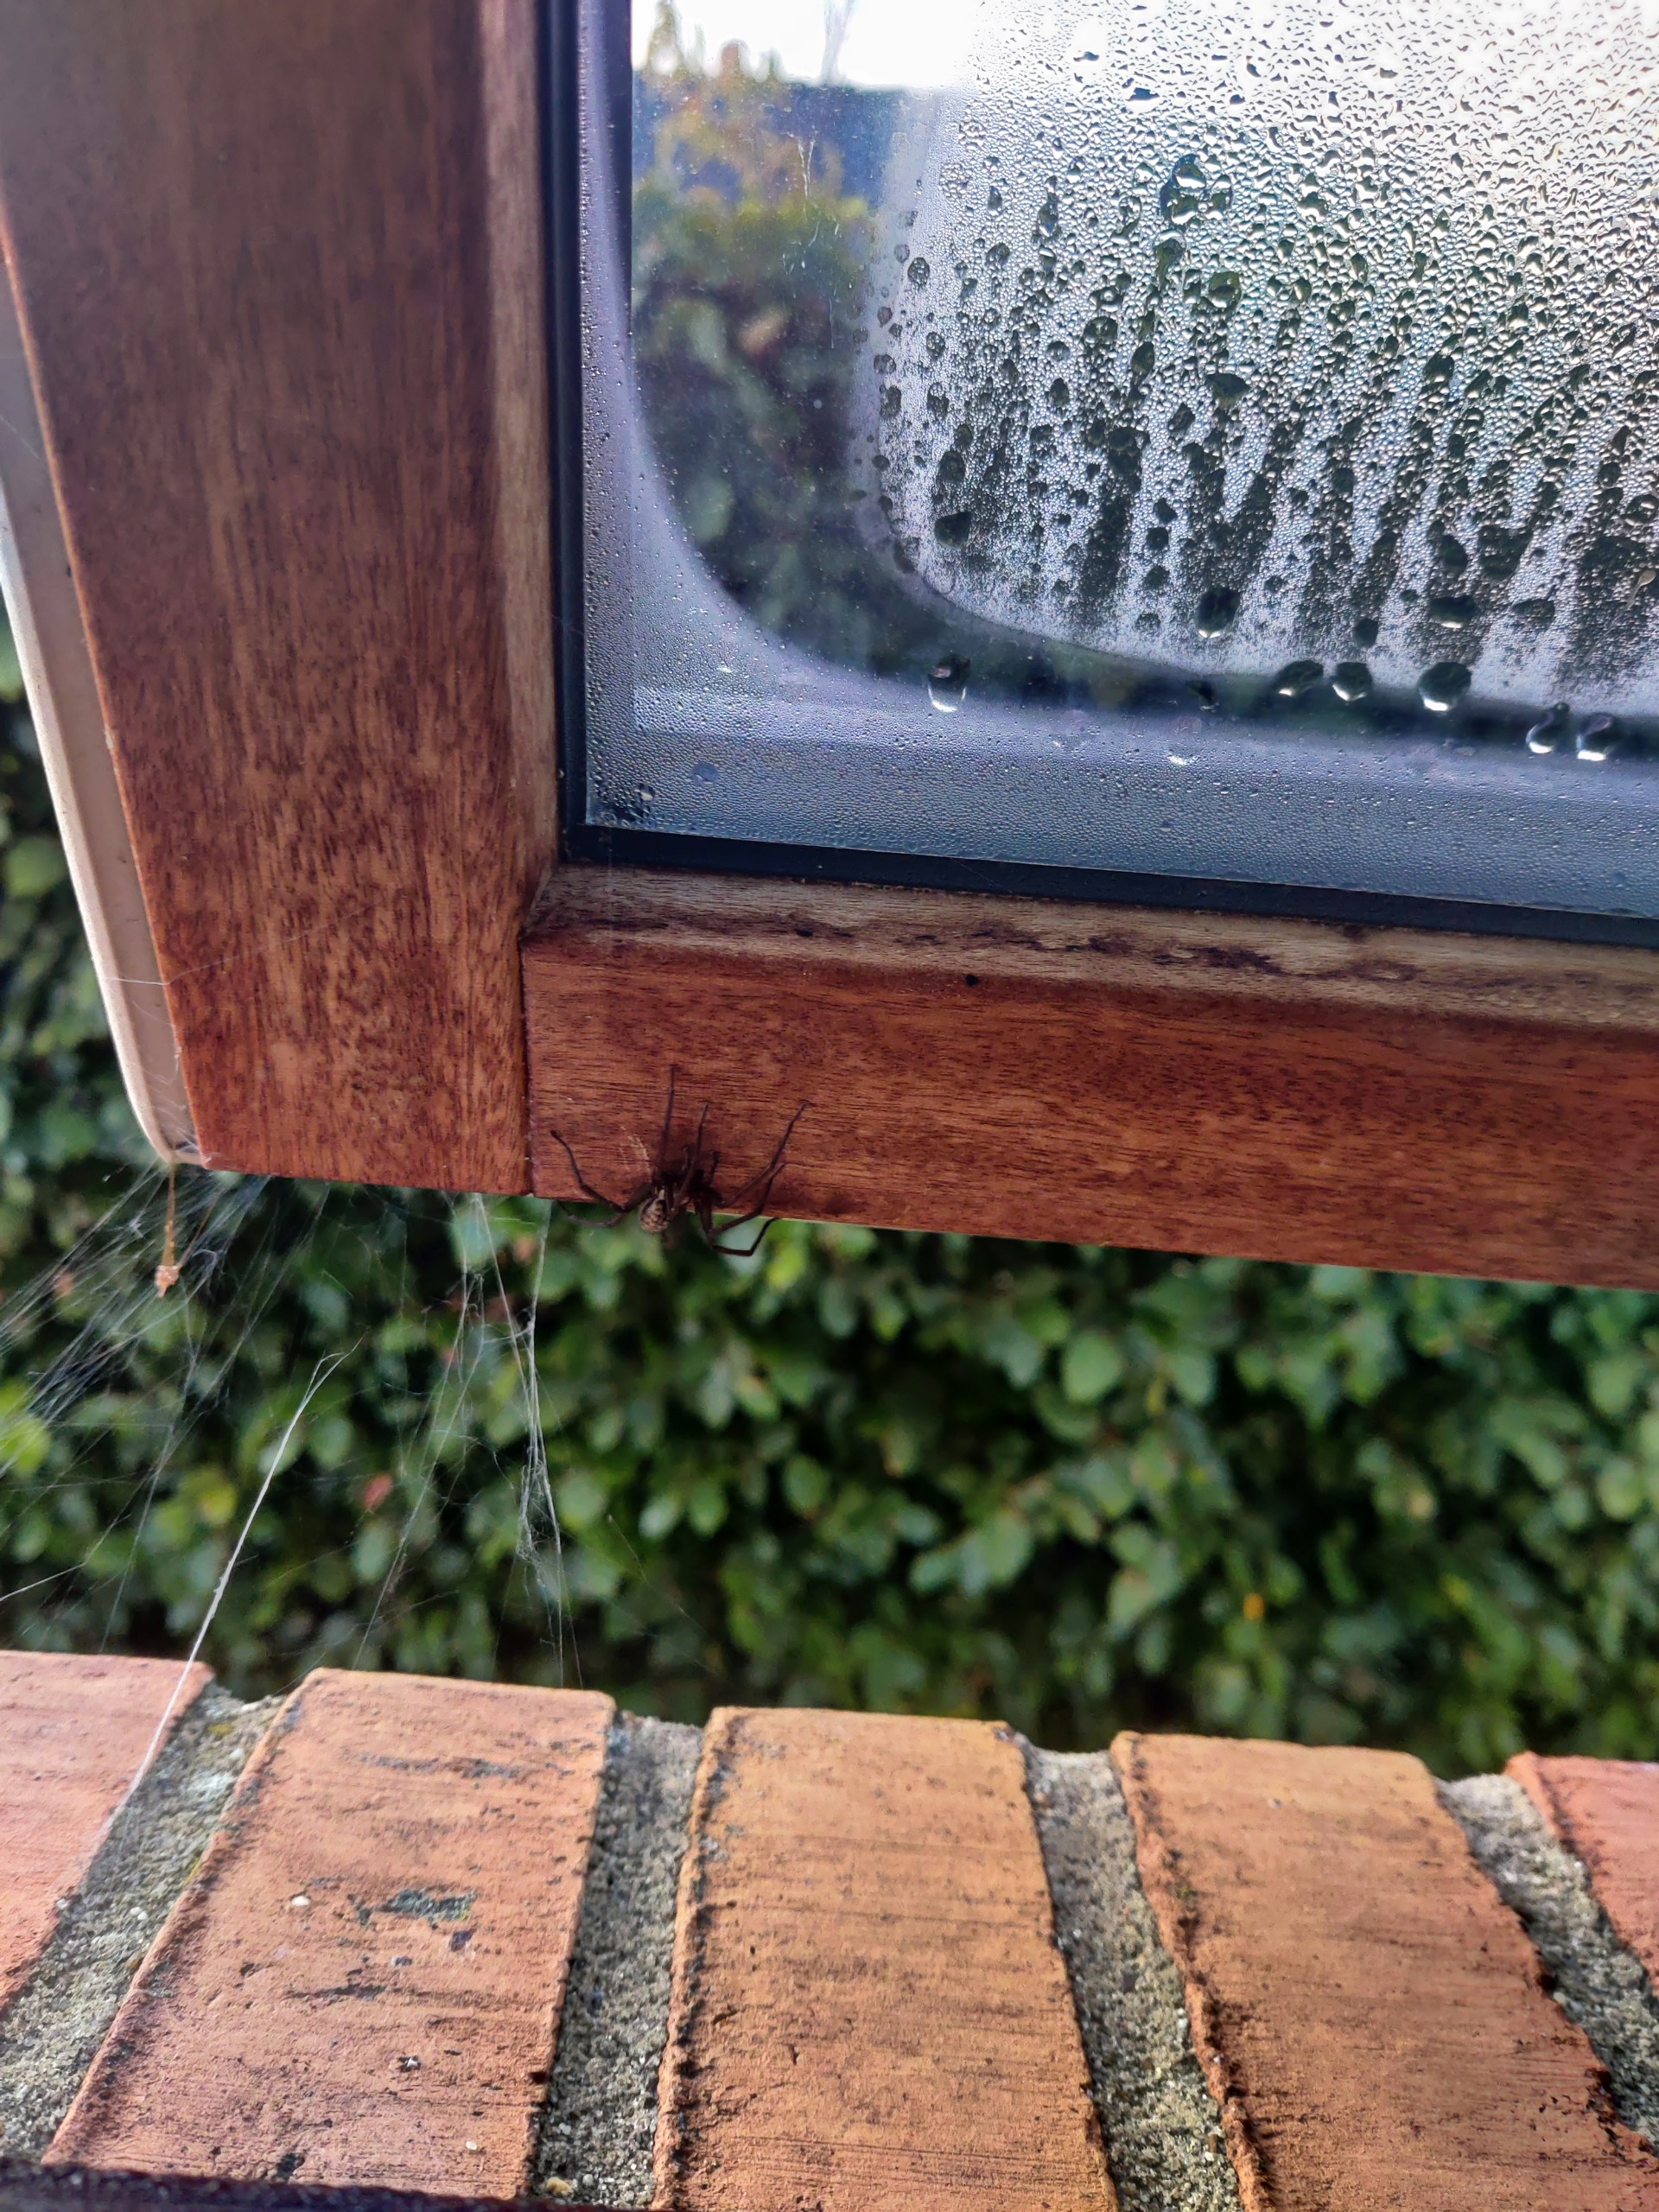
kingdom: Animalia
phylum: Arthropoda
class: Arachnida
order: Araneae
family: Agelenidae
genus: Eratigena
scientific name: Eratigena atrica
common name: Stor husedderkop
